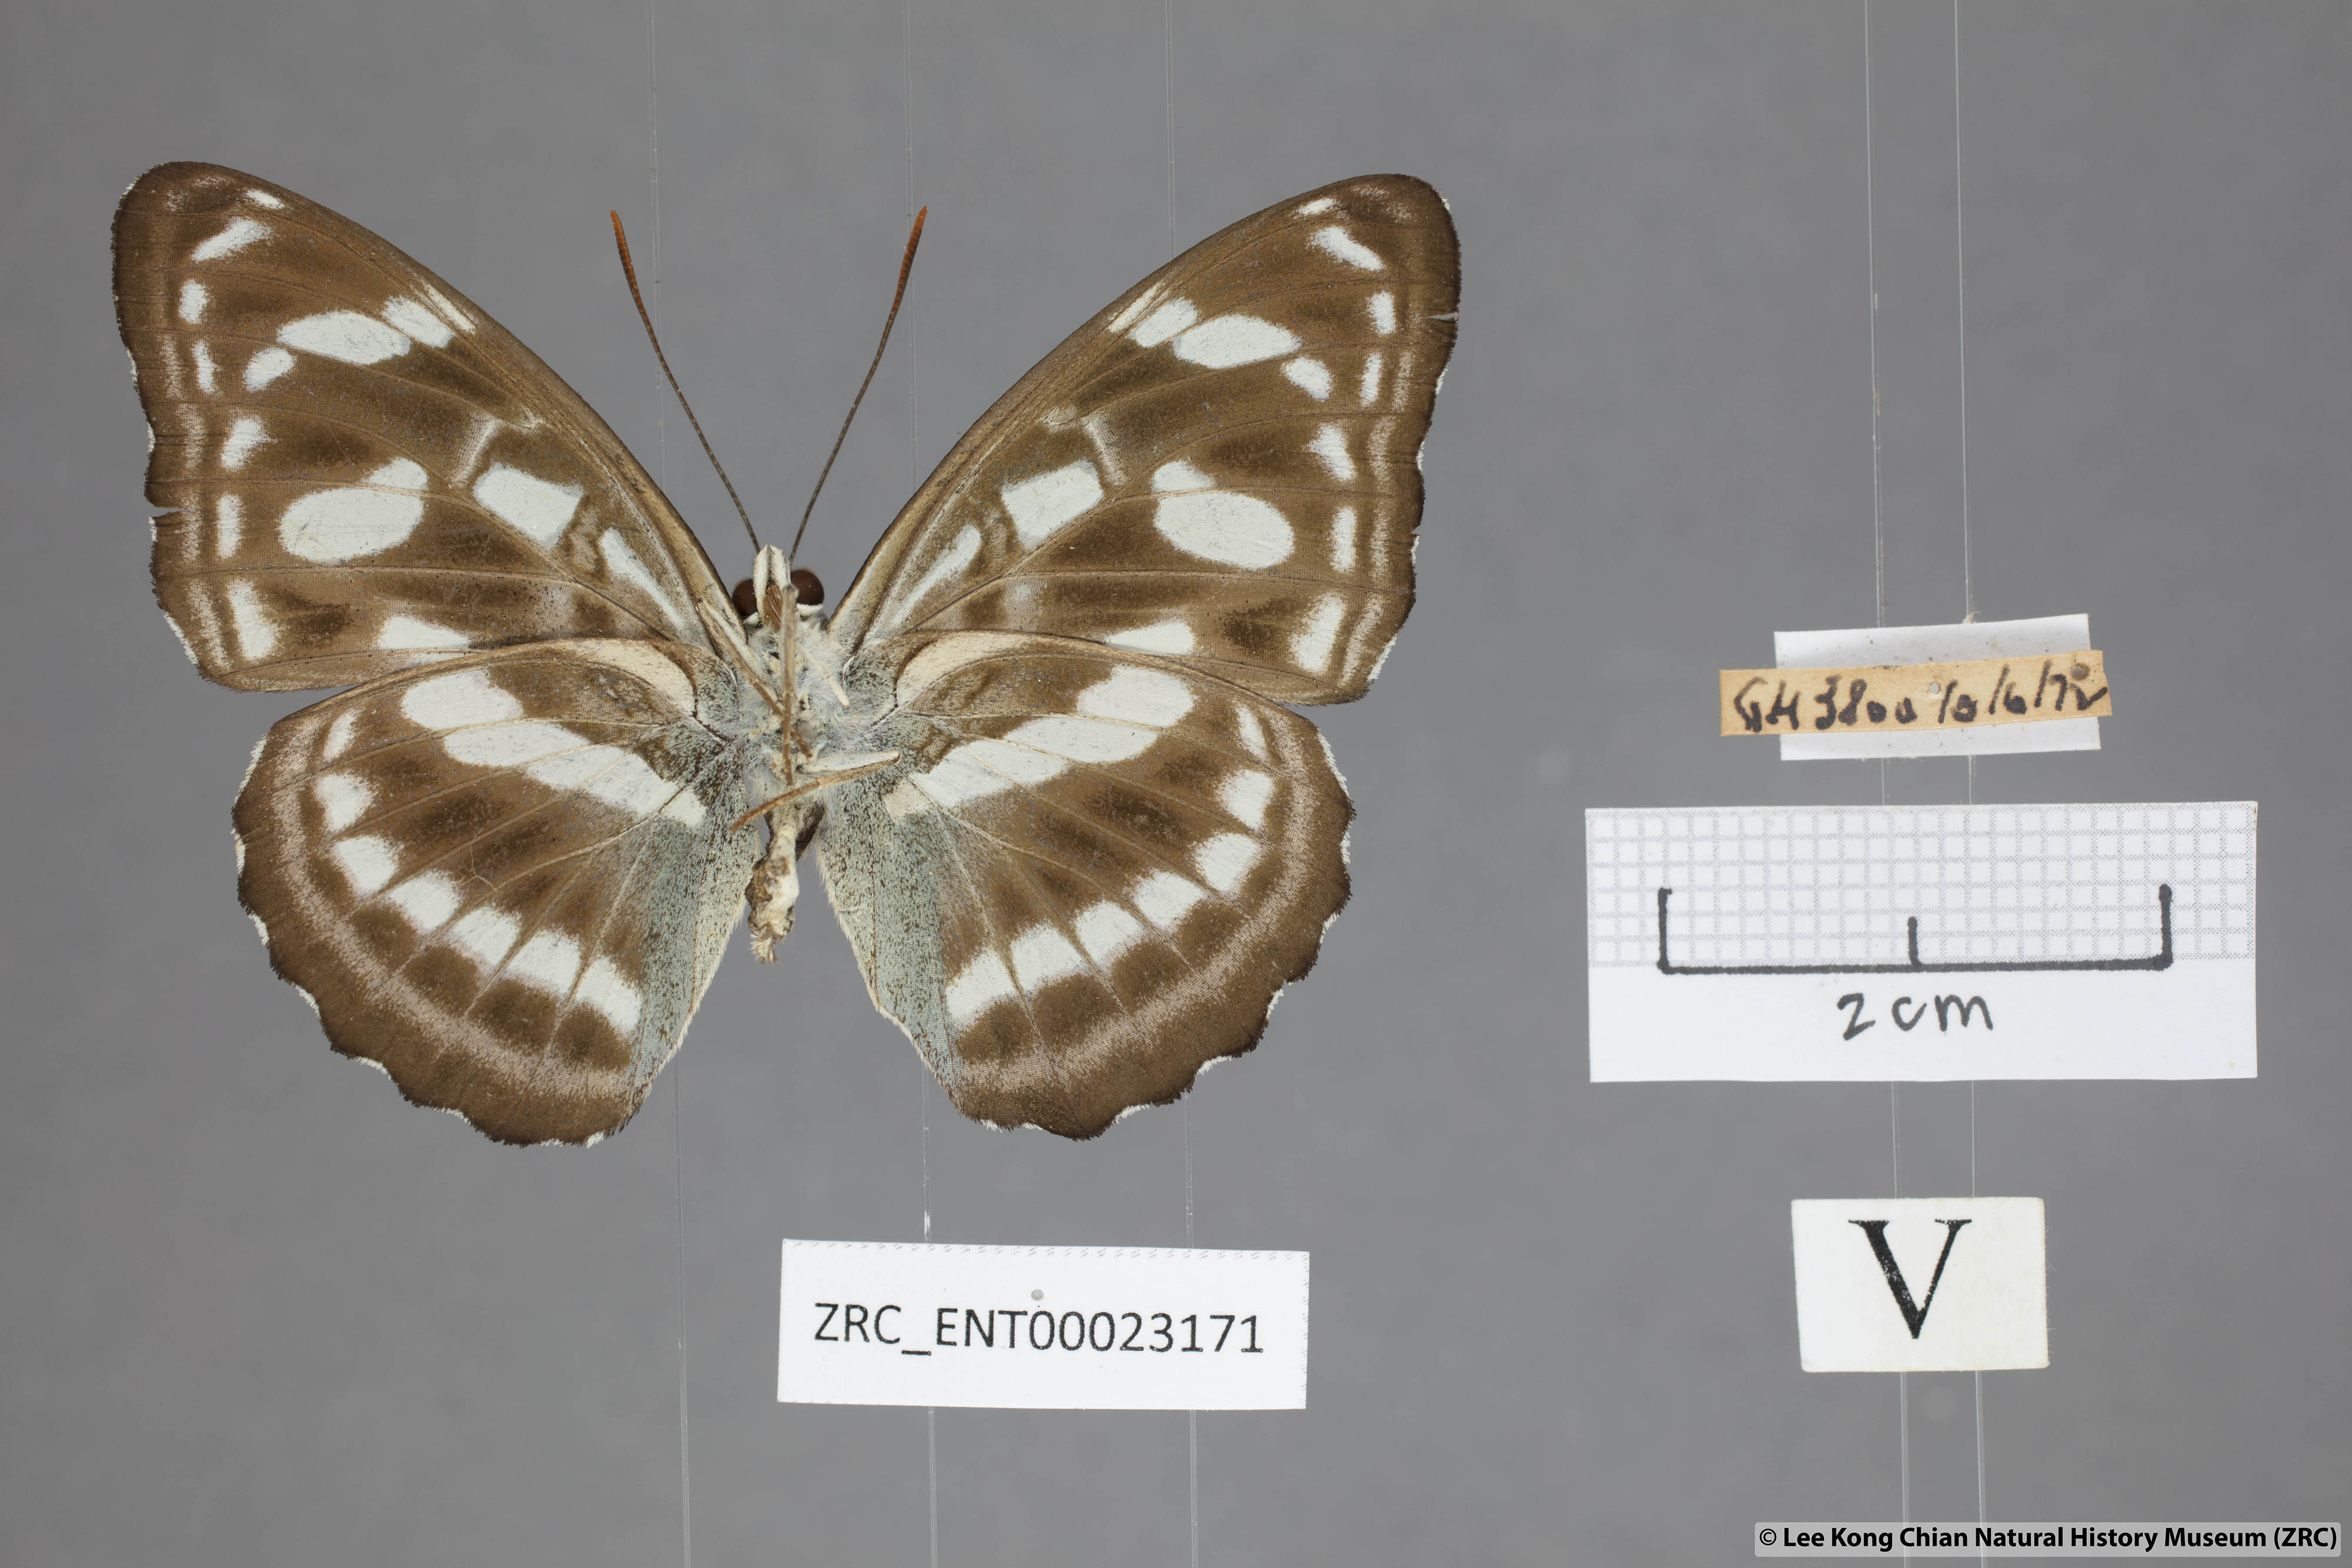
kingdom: Animalia
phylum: Arthropoda
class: Insecta
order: Lepidoptera
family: Nymphalidae
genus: Parathyma
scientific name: Parathyma abiasa
